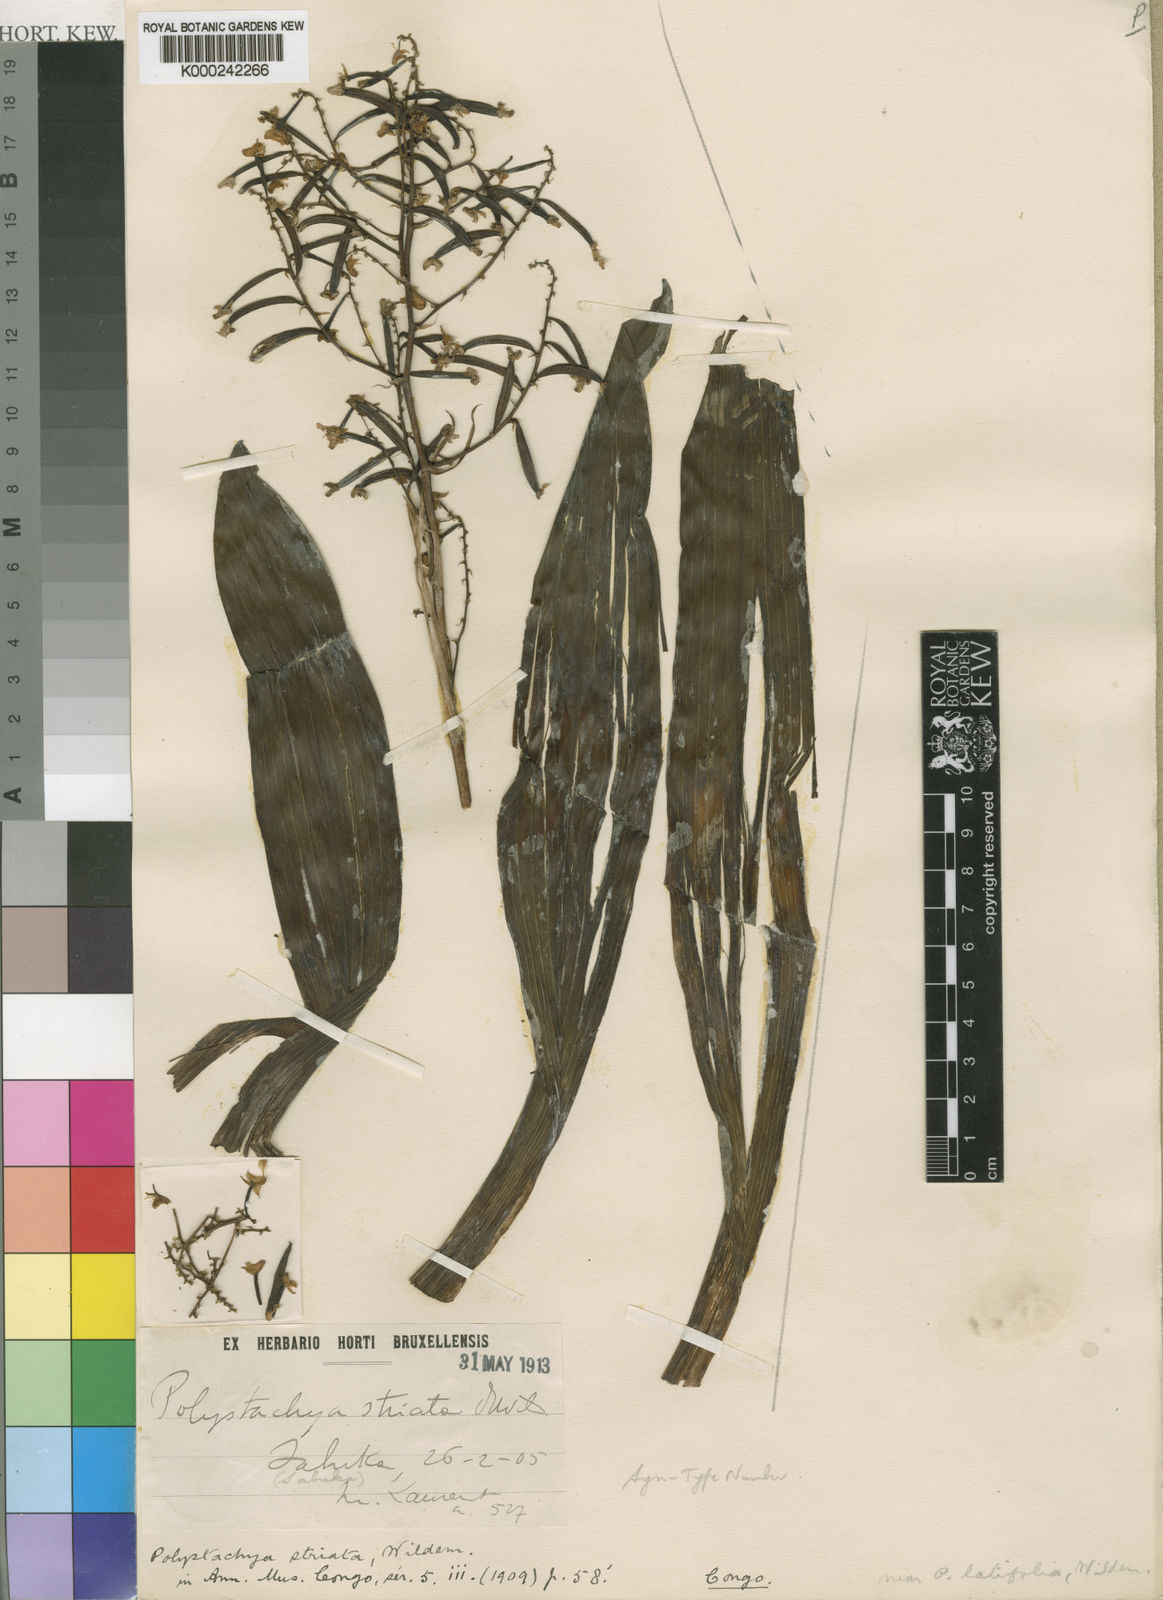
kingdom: Plantae
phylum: Tracheophyta
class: Liliopsida
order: Asparagales
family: Orchidaceae
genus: Polystachya
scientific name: Polystachya odorata
